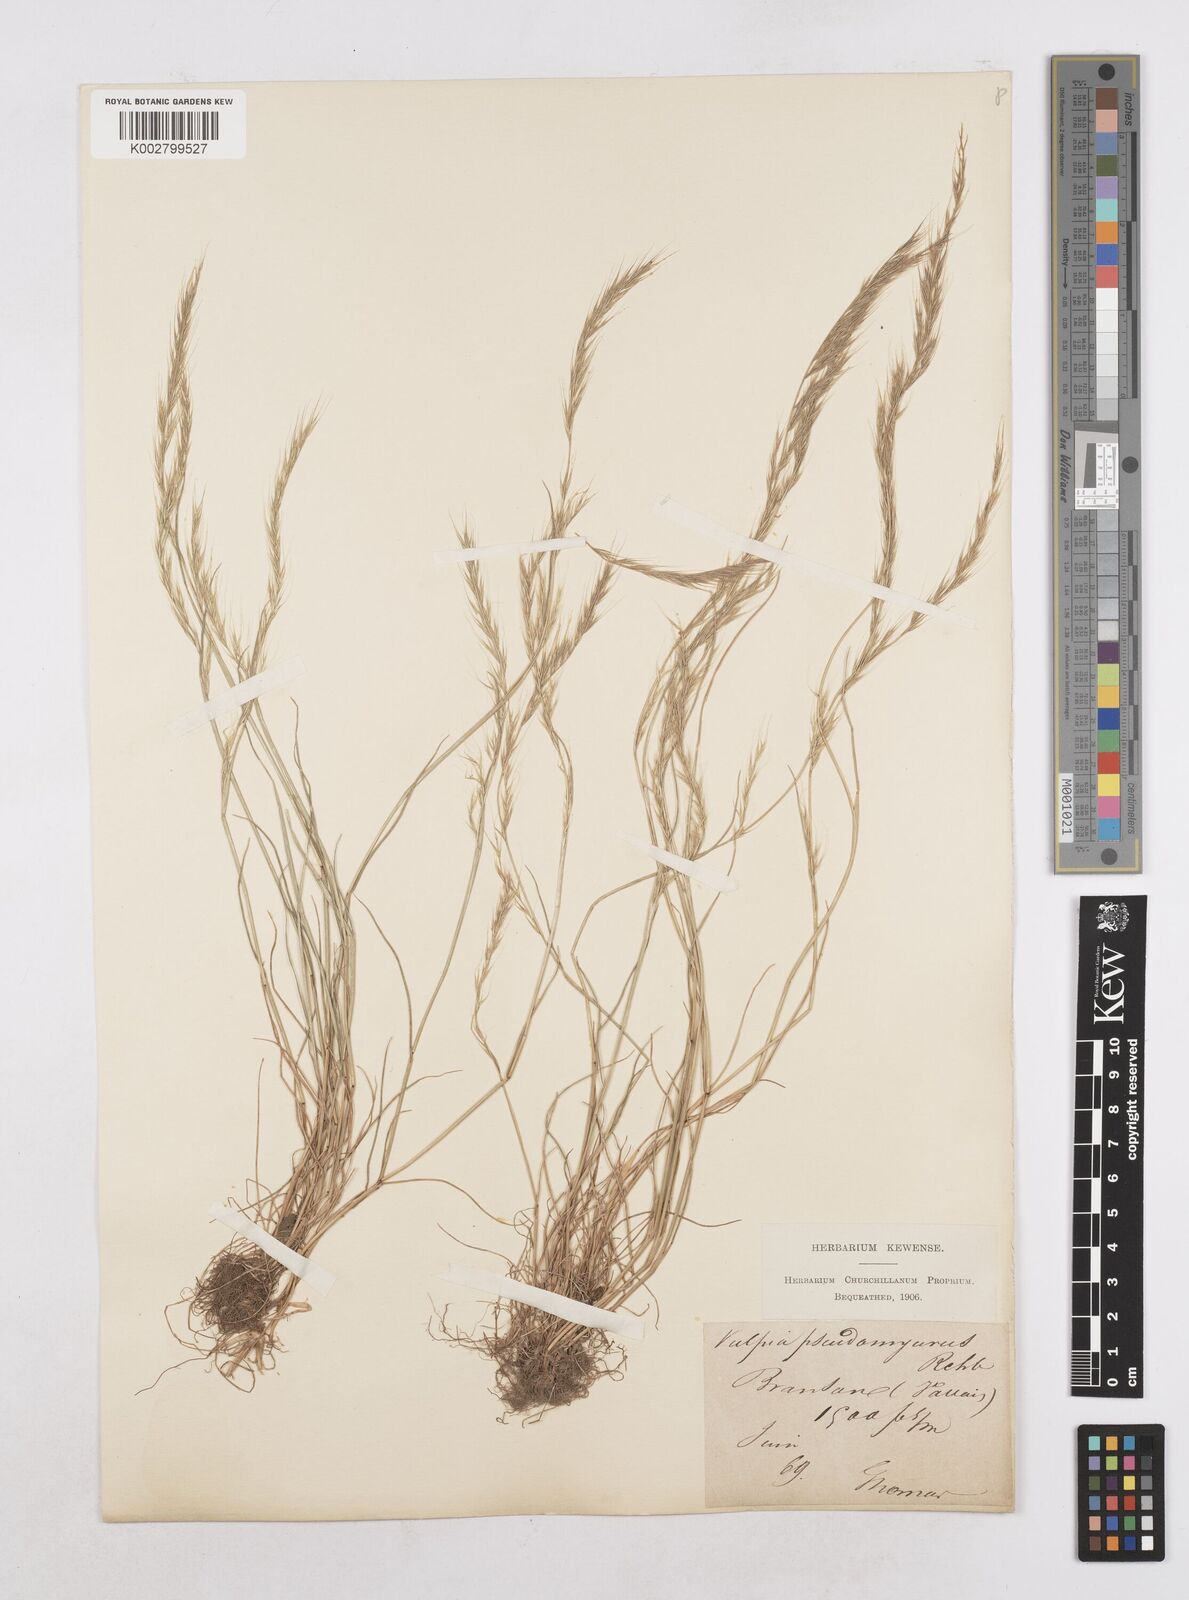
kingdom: Plantae
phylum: Tracheophyta
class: Liliopsida
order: Poales
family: Poaceae
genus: Festuca
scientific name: Festuca myuros
